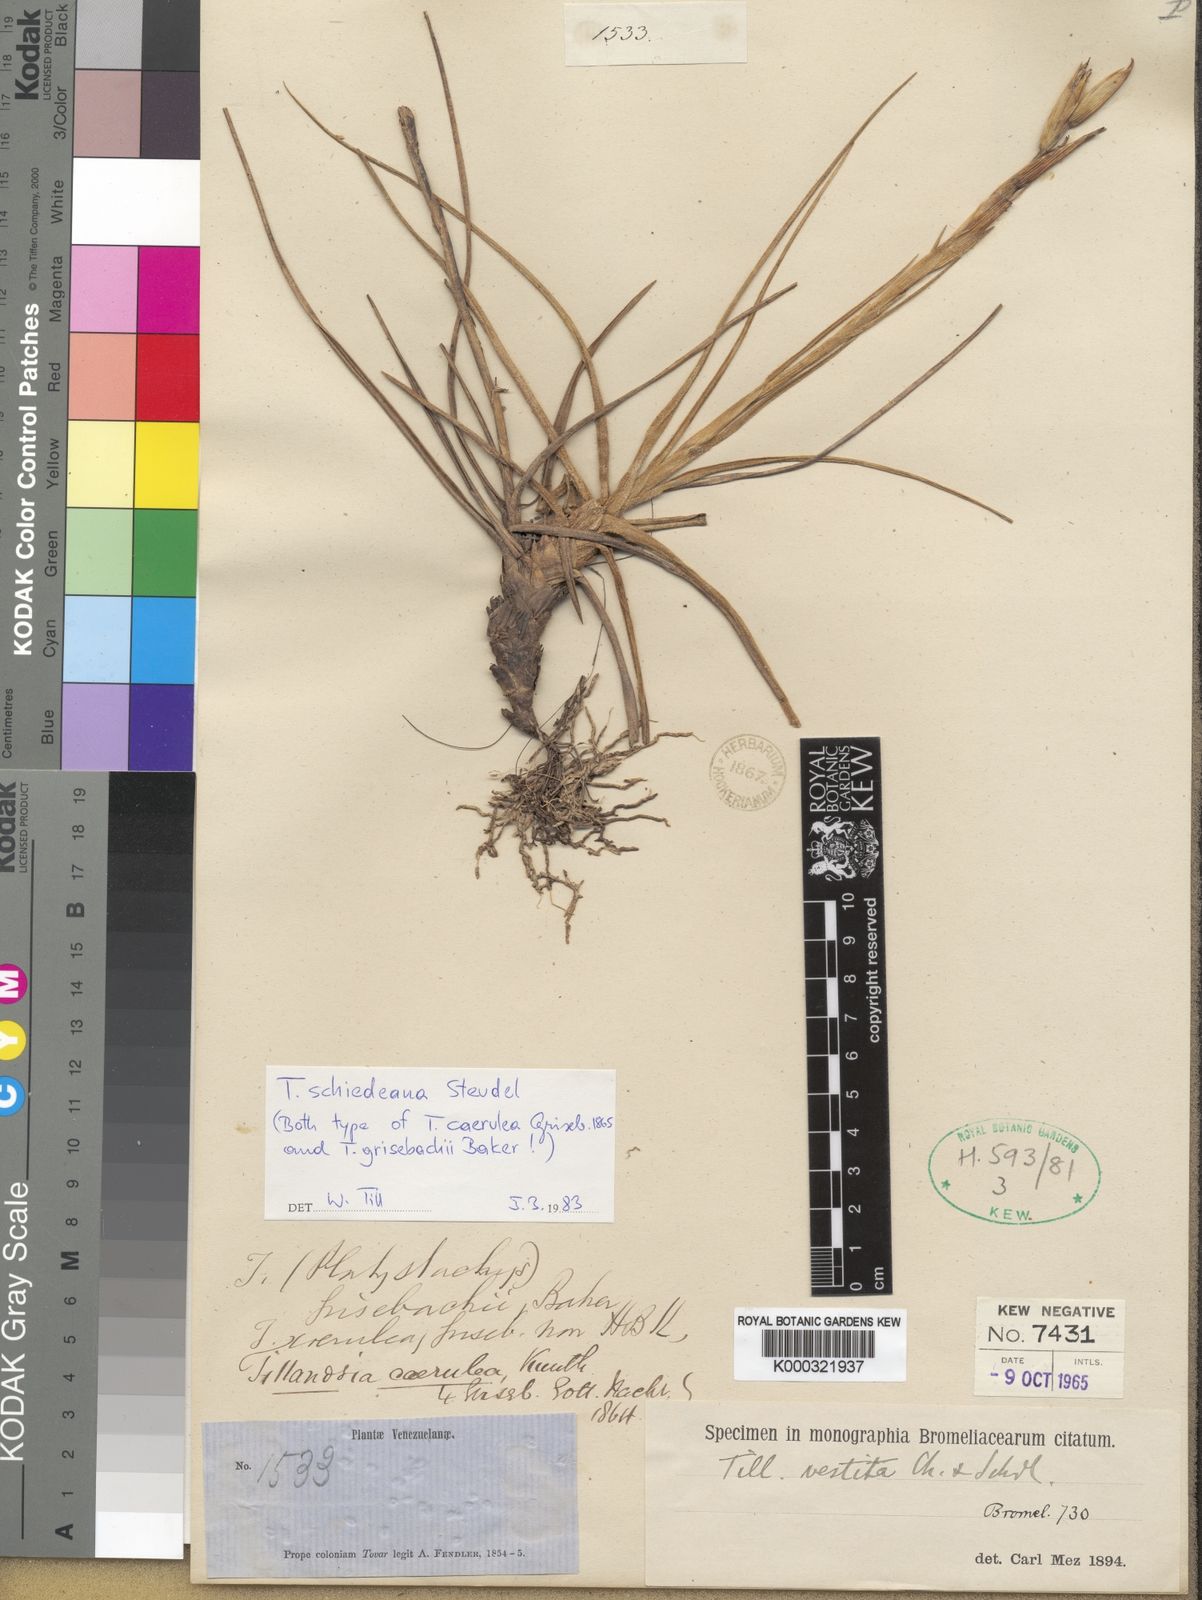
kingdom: Plantae
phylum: Tracheophyta
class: Liliopsida
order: Poales
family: Bromeliaceae
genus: Tillandsia
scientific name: Tillandsia schiedeana
